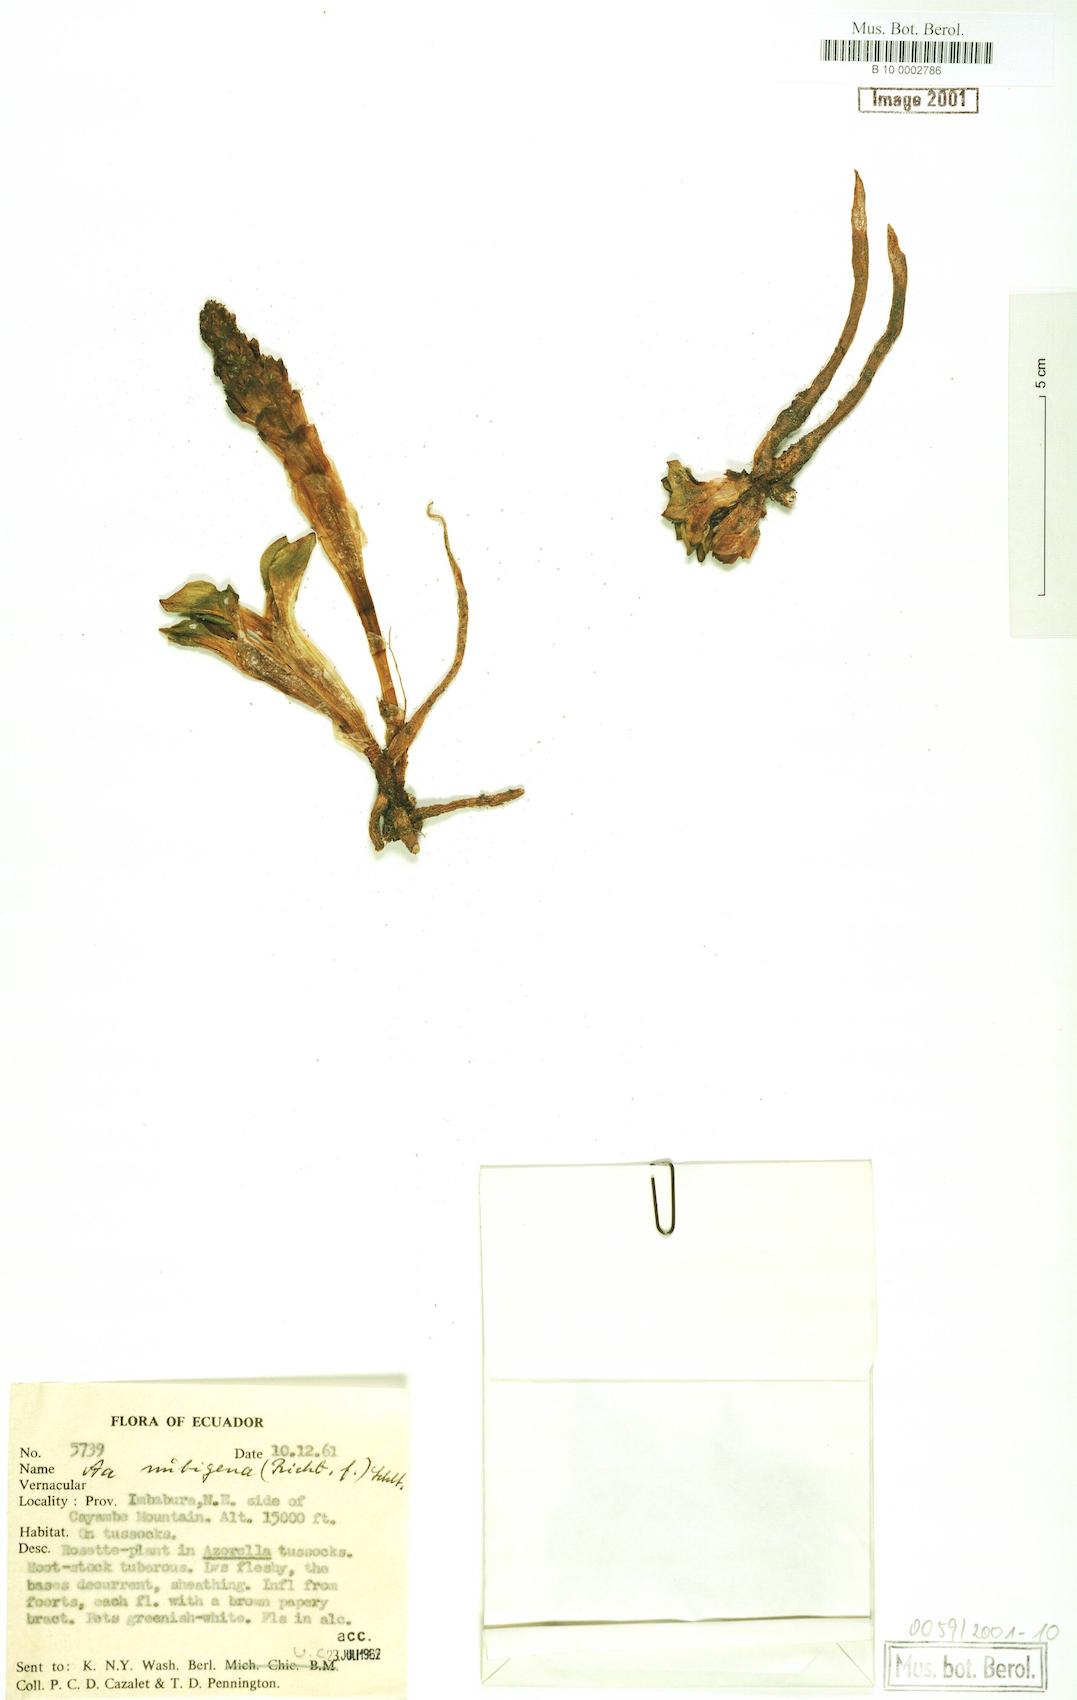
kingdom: Plantae
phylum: Tracheophyta
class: Liliopsida
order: Asparagales
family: Orchidaceae
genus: Myrosmodes
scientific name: Myrosmodes nubigena
